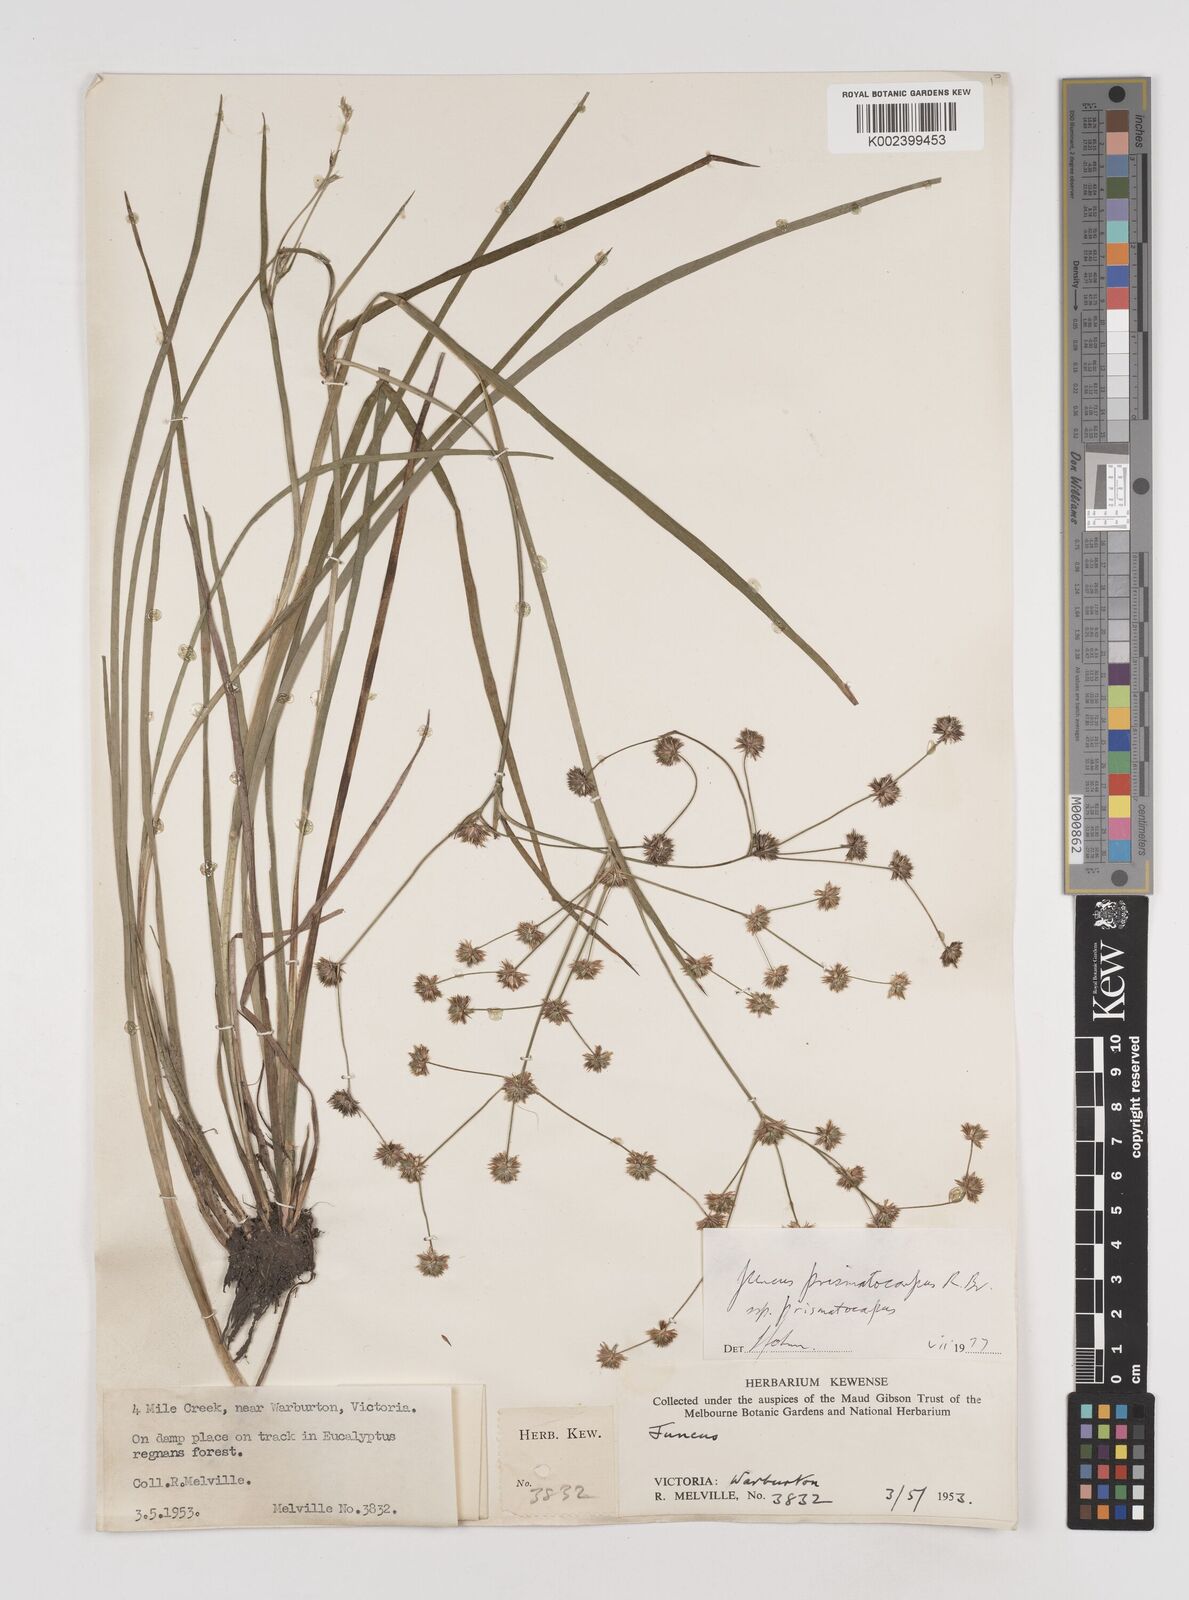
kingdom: Plantae
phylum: Tracheophyta
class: Liliopsida
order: Poales
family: Juncaceae
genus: Juncus
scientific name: Juncus prismatocarpus
